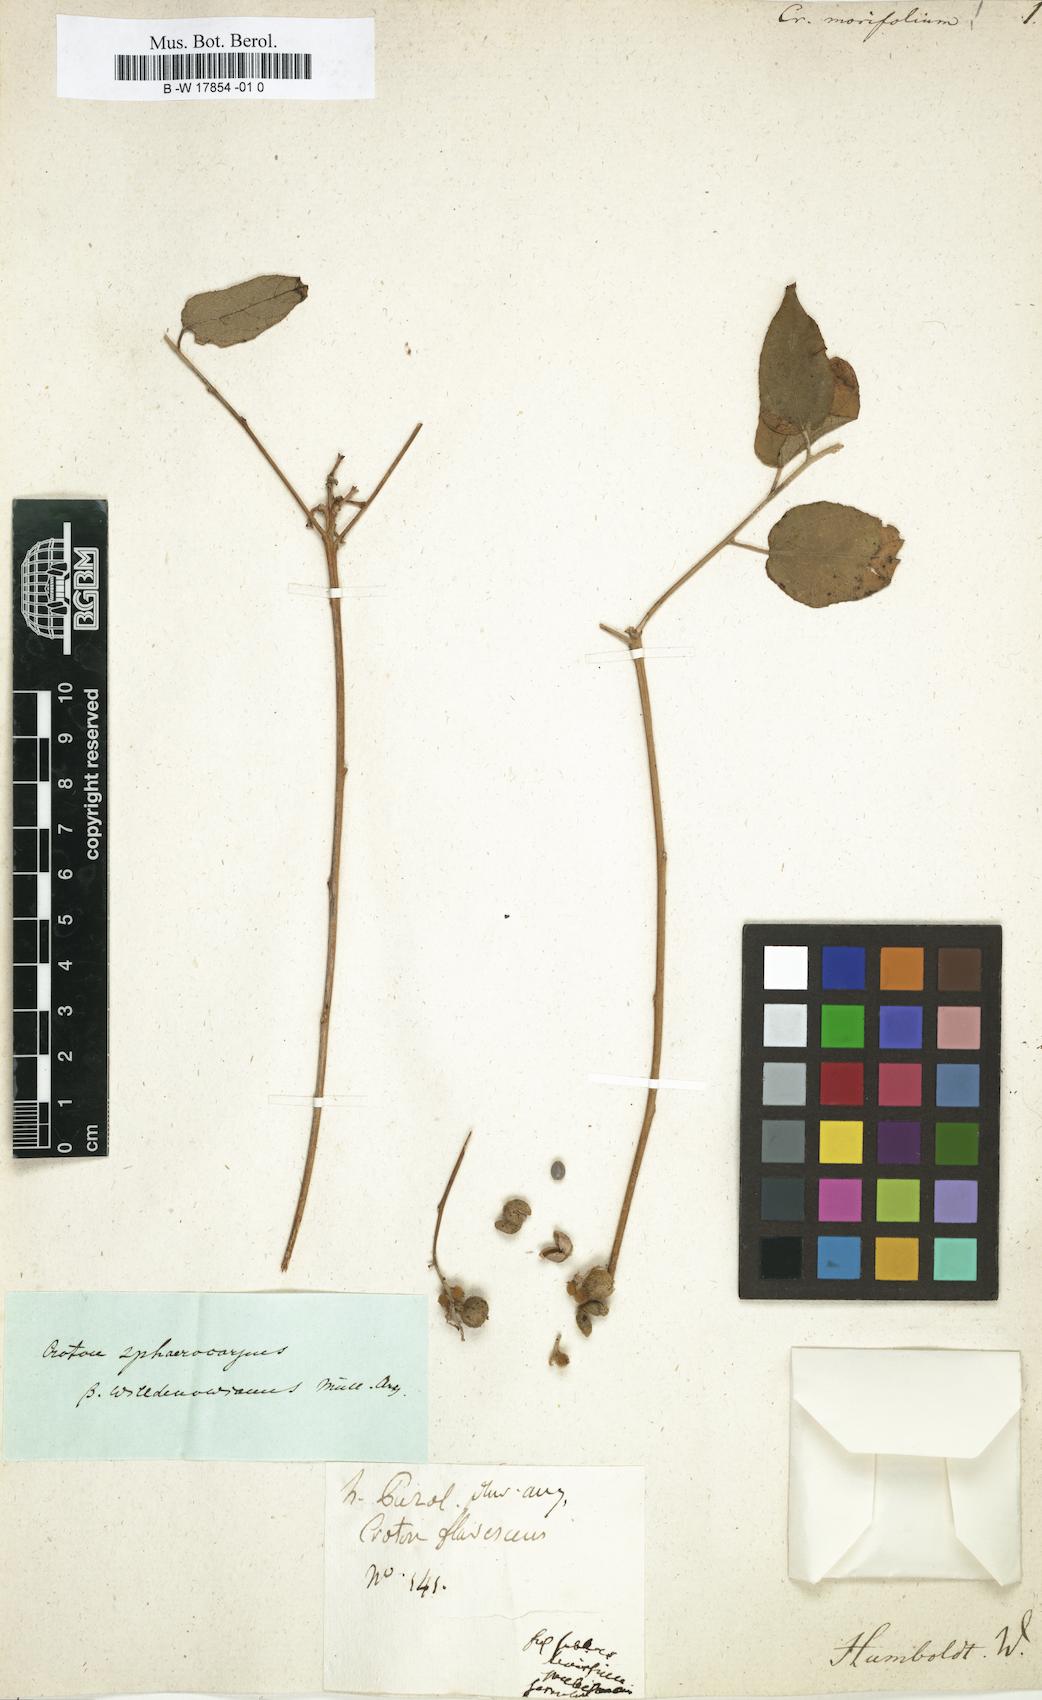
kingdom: Plantae
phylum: Tracheophyta
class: Magnoliopsida
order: Malpighiales
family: Euphorbiaceae
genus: Croton
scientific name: Croton morifolius
